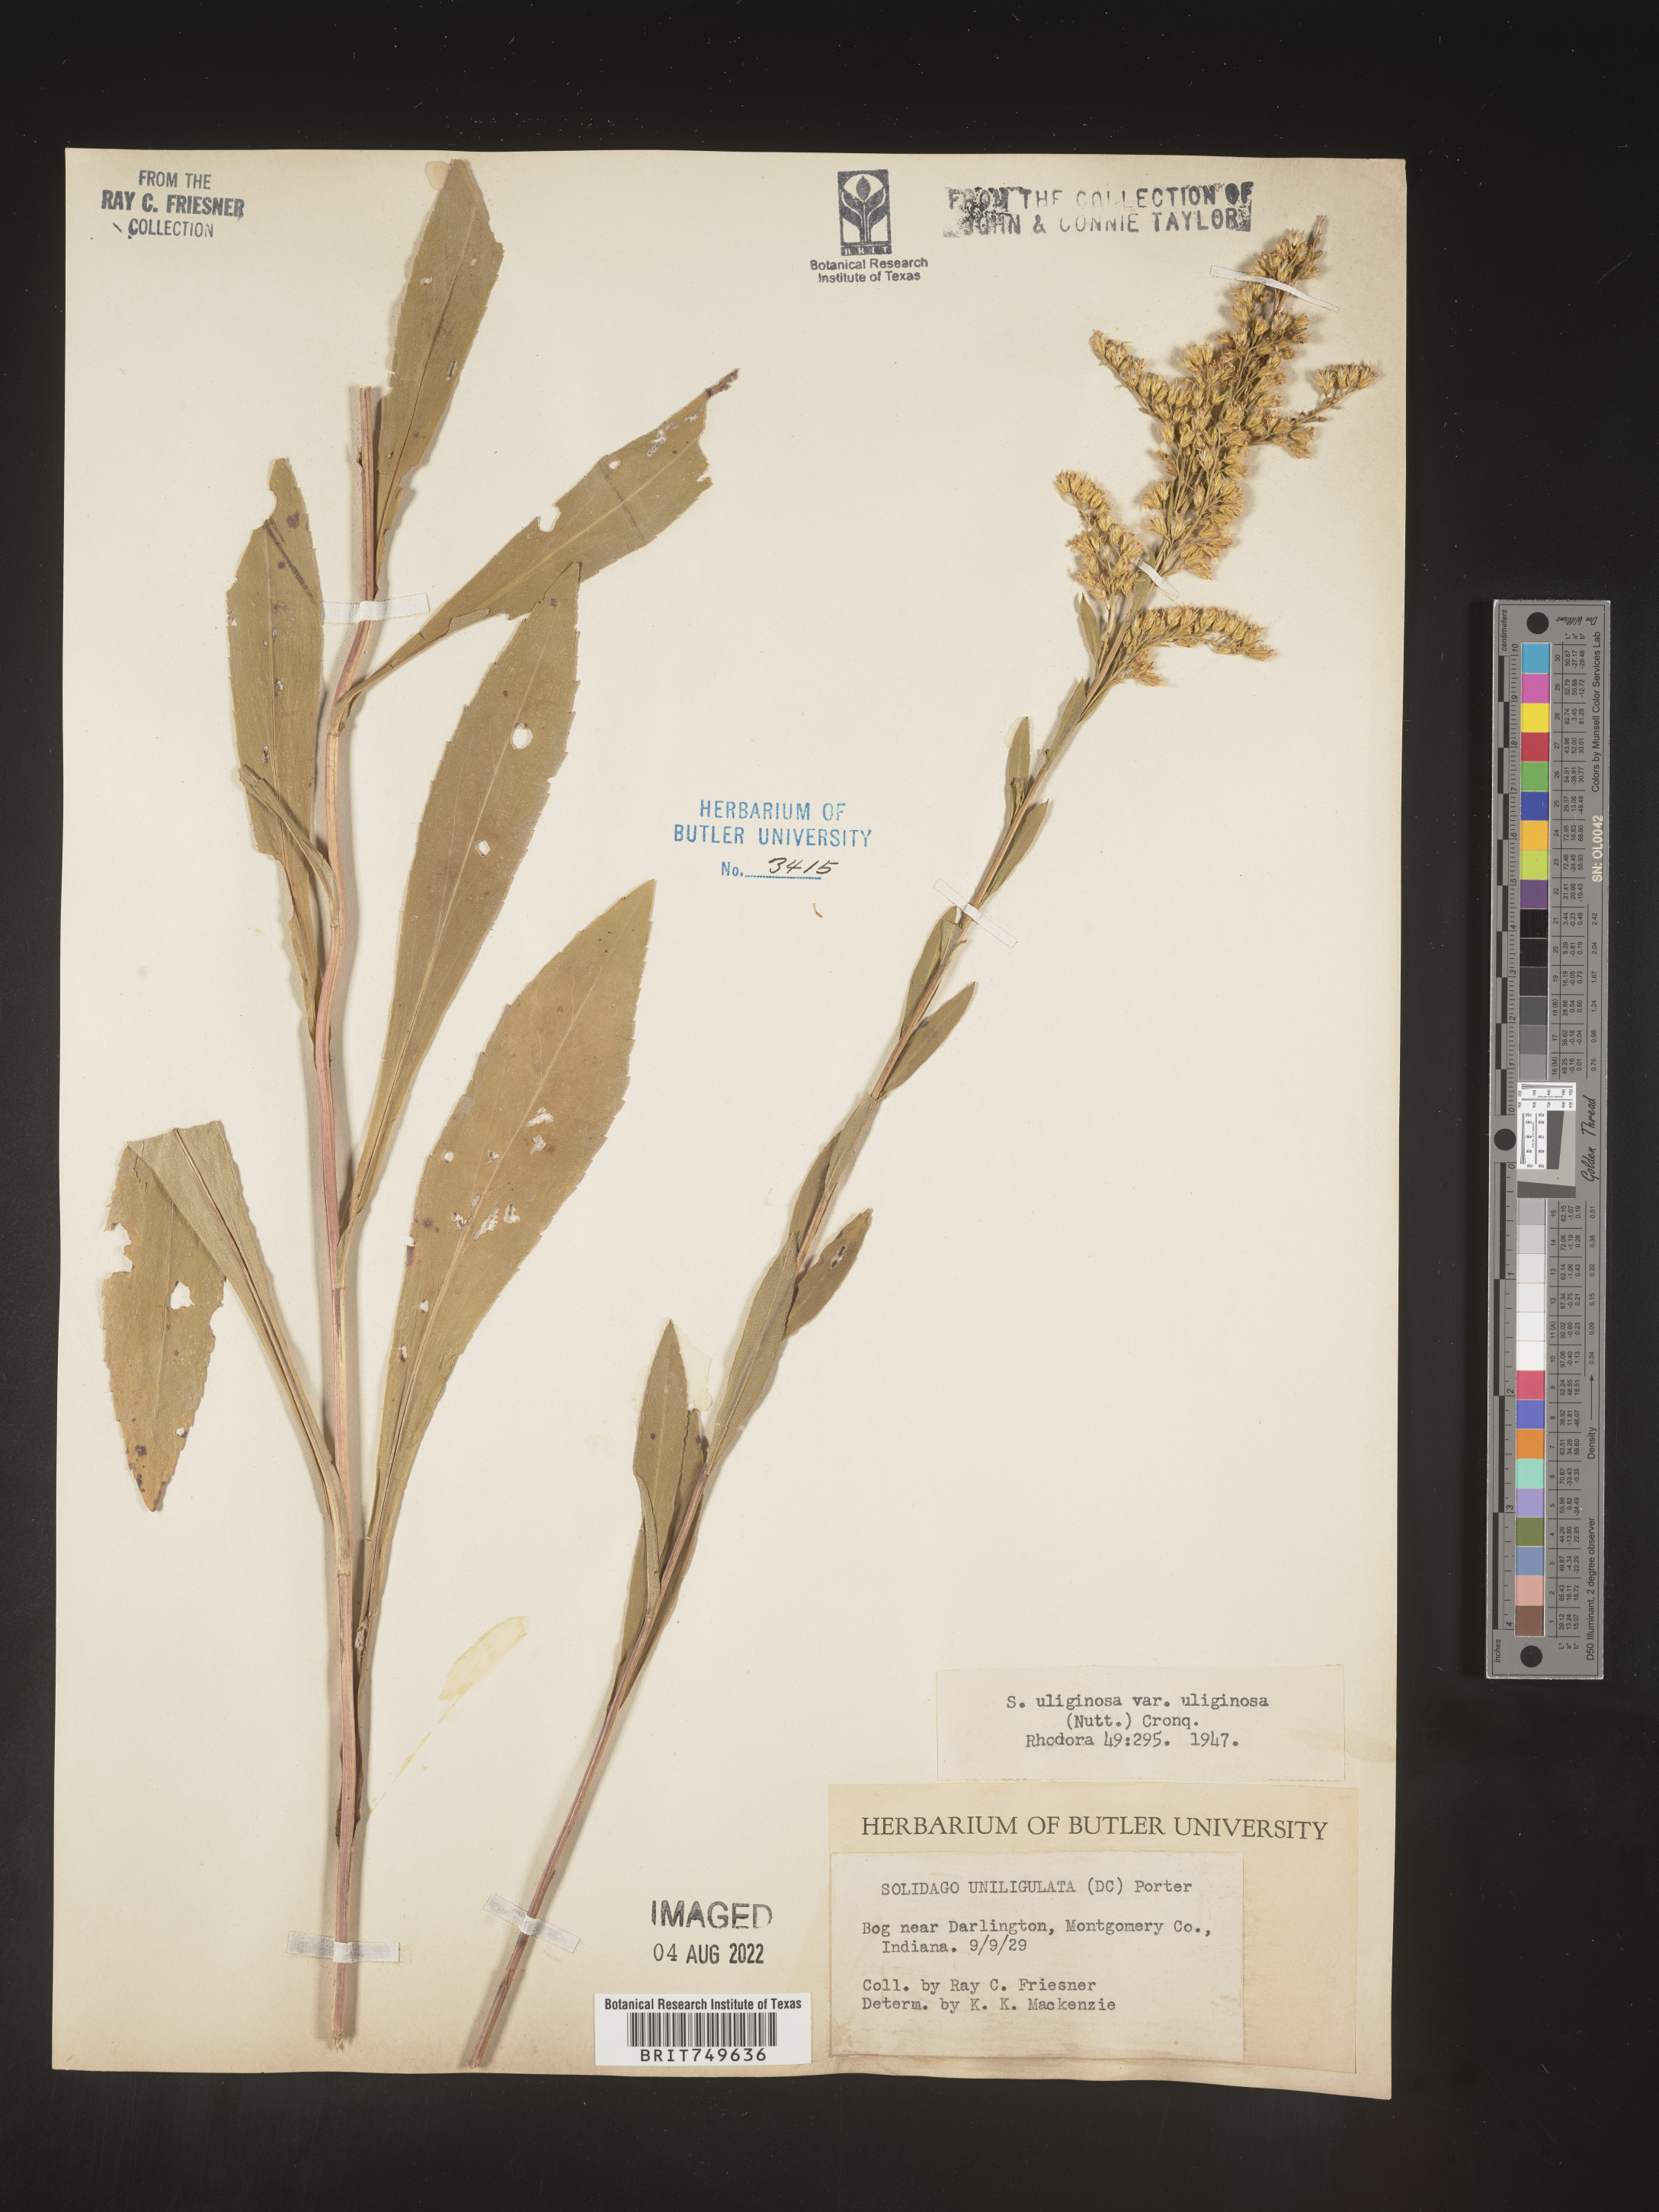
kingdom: Plantae
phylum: Tracheophyta
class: Magnoliopsida
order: Asterales
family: Asteraceae
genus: Solidago
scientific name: Solidago uliginosa
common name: Bog goldenrod
